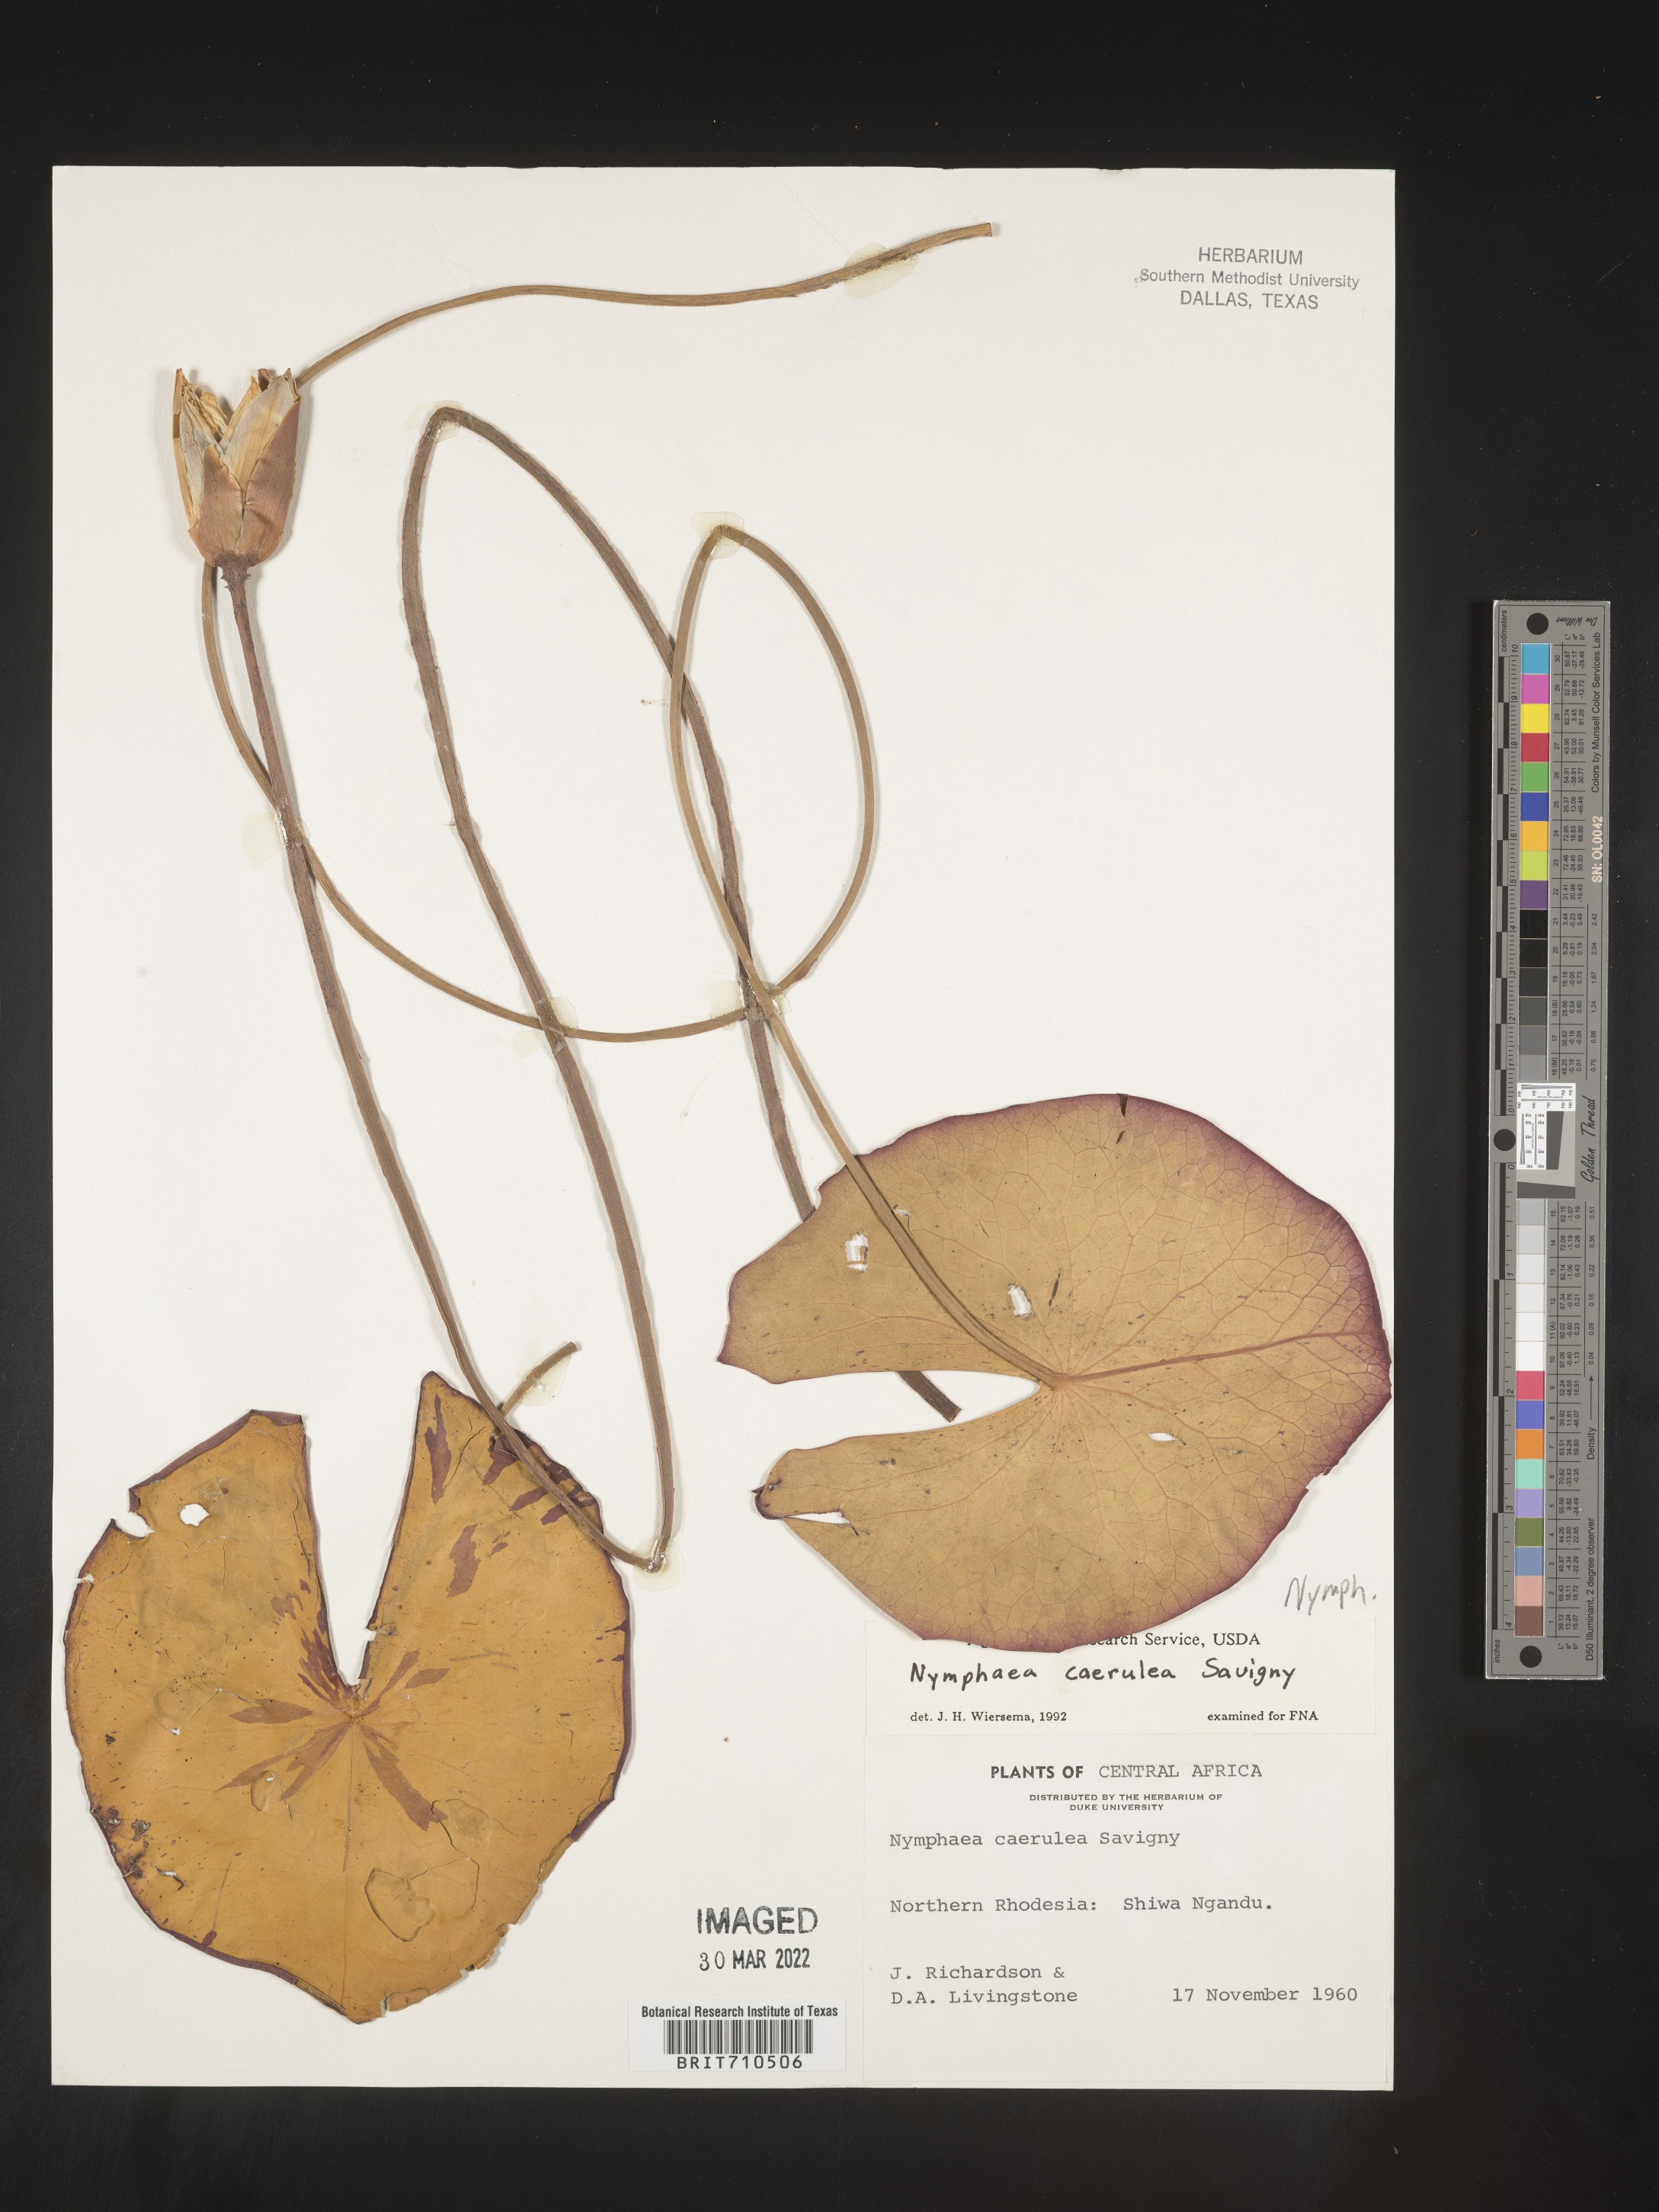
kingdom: Plantae
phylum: Tracheophyta
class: Magnoliopsida
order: Nymphaeales
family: Nymphaeaceae
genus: Nymphaea
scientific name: Nymphaea
